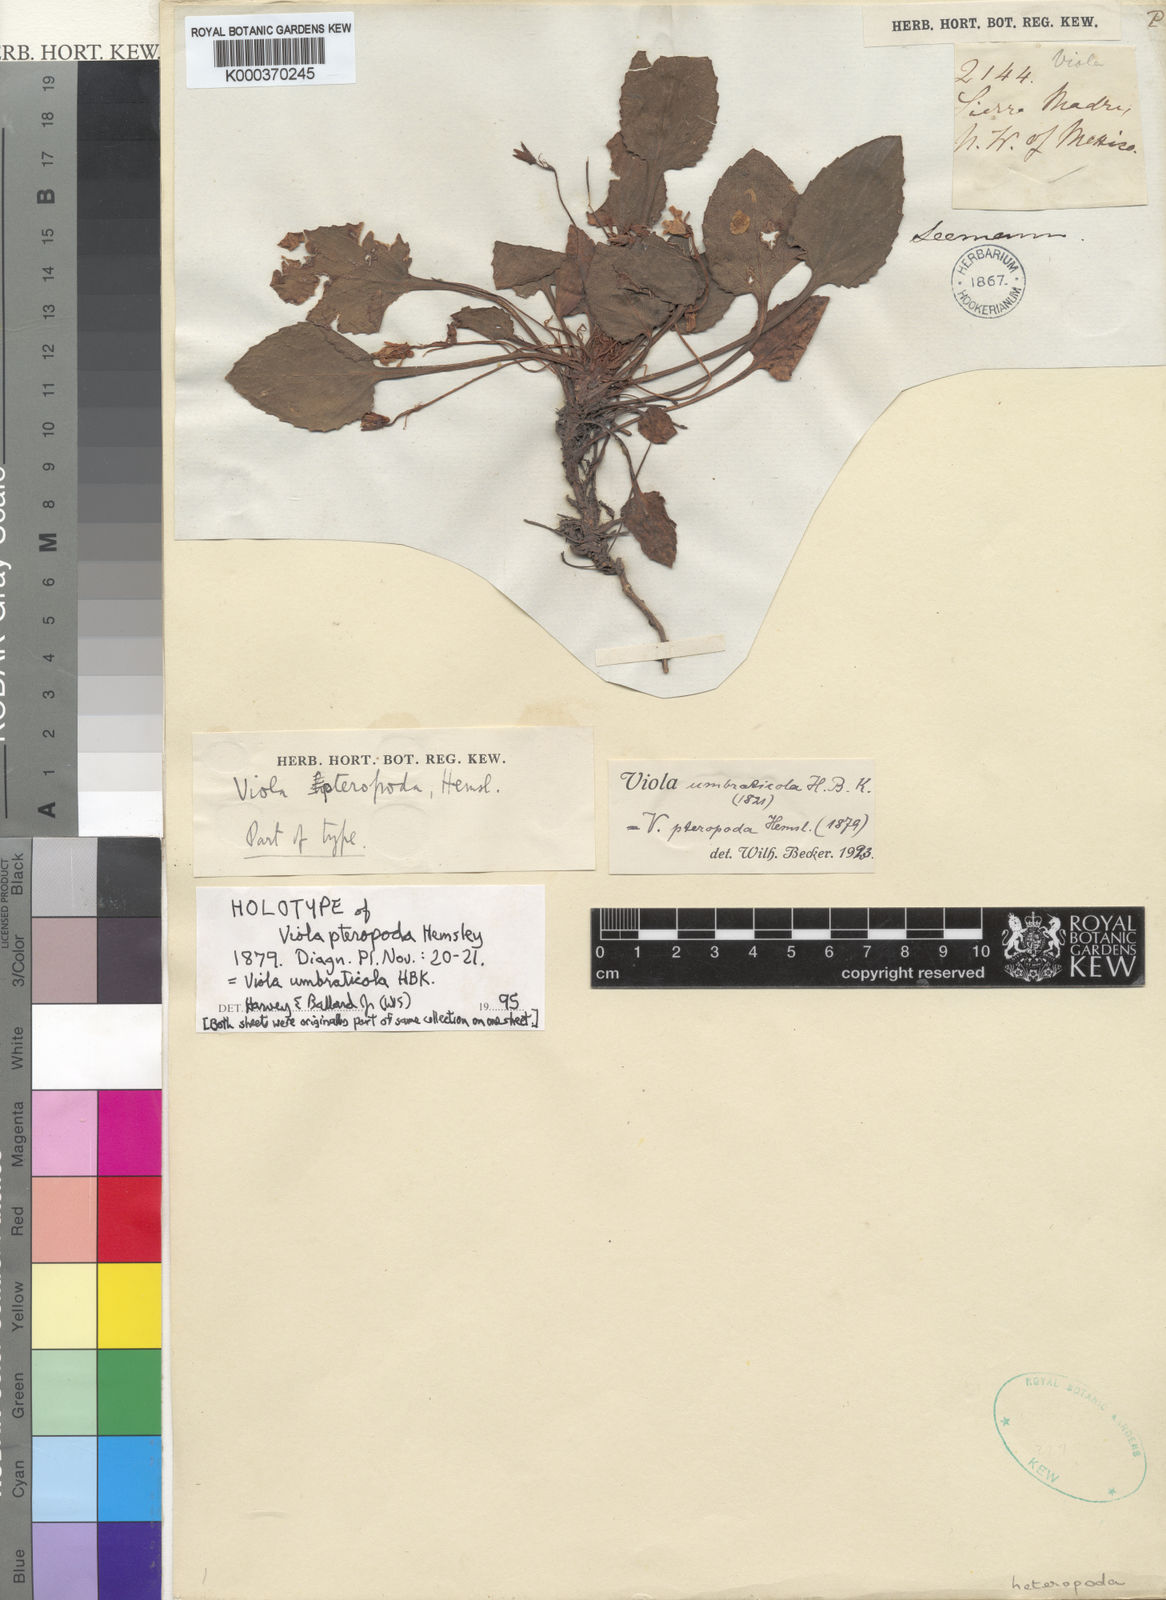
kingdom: Plantae
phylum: Tracheophyta
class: Magnoliopsida
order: Malpighiales
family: Violaceae
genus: Viola
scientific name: Viola
